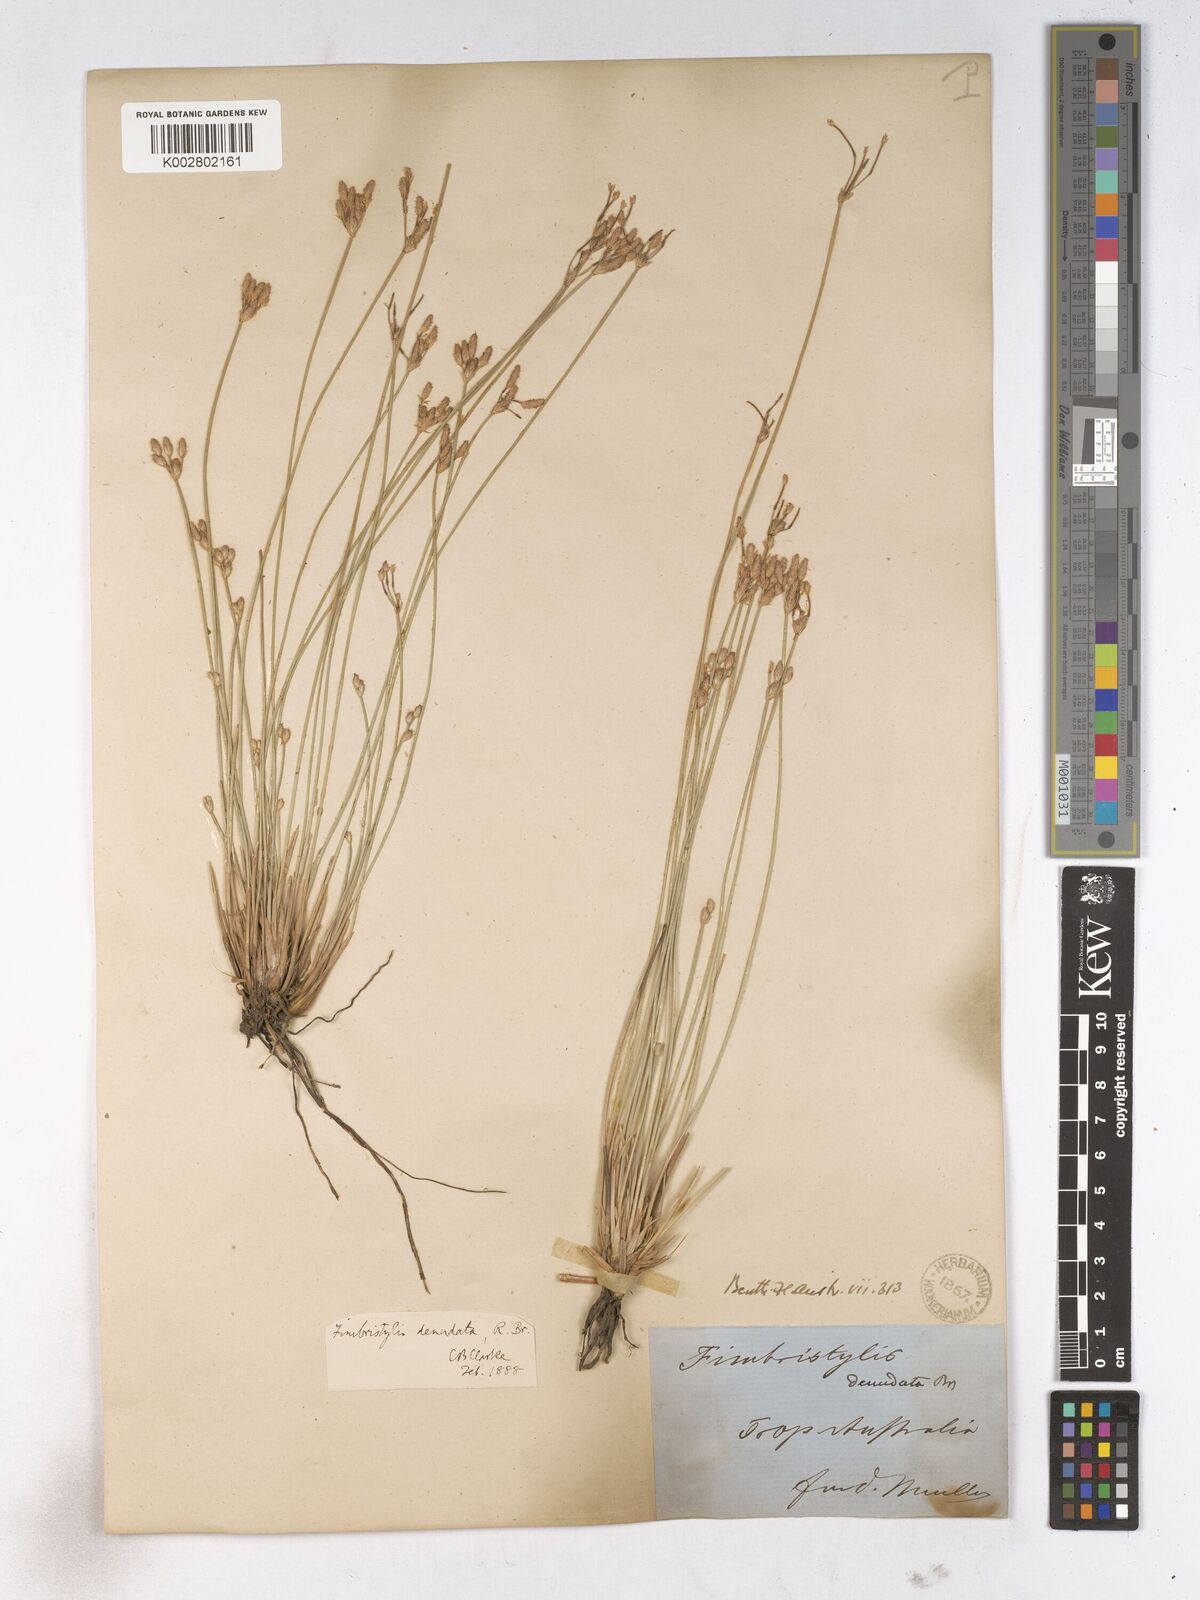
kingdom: Plantae
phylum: Tracheophyta
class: Liliopsida
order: Poales
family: Cyperaceae
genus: Fimbristylis
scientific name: Fimbristylis denudata
